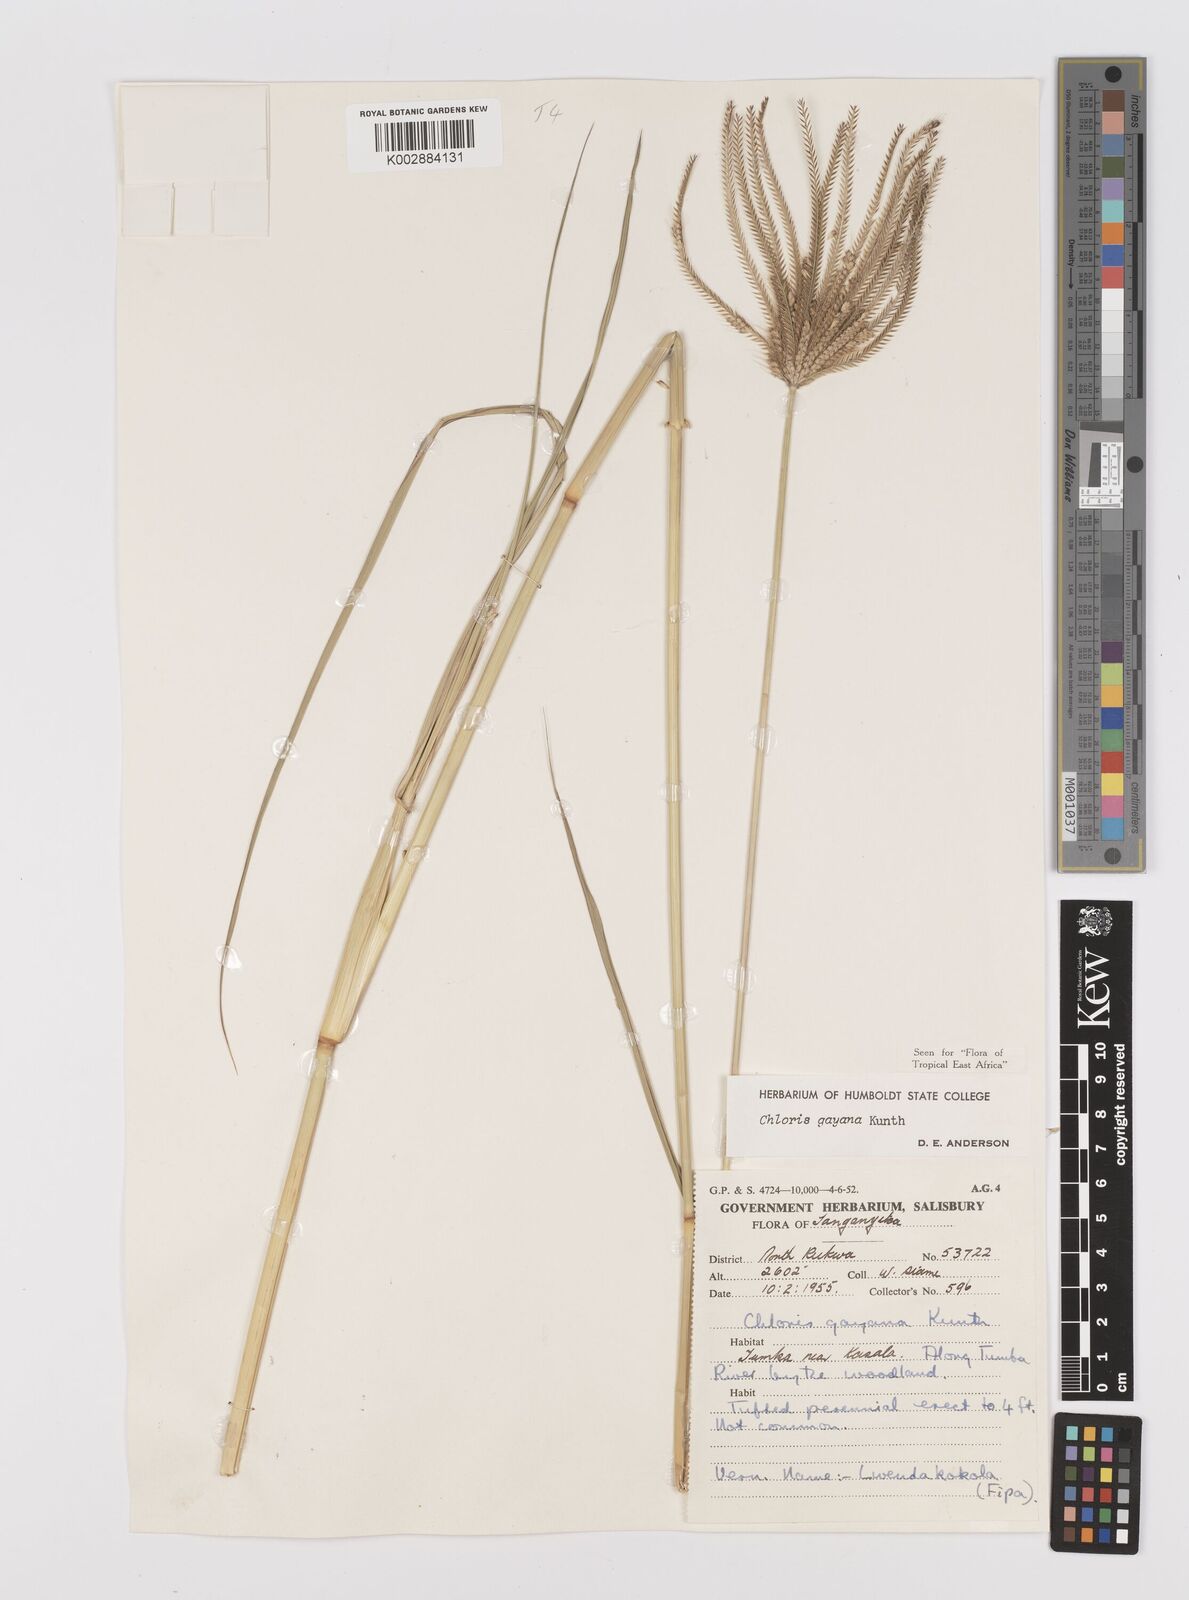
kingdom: Plantae
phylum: Tracheophyta
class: Liliopsida
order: Poales
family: Poaceae
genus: Chloris
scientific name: Chloris gayana
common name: Rhodes grass
